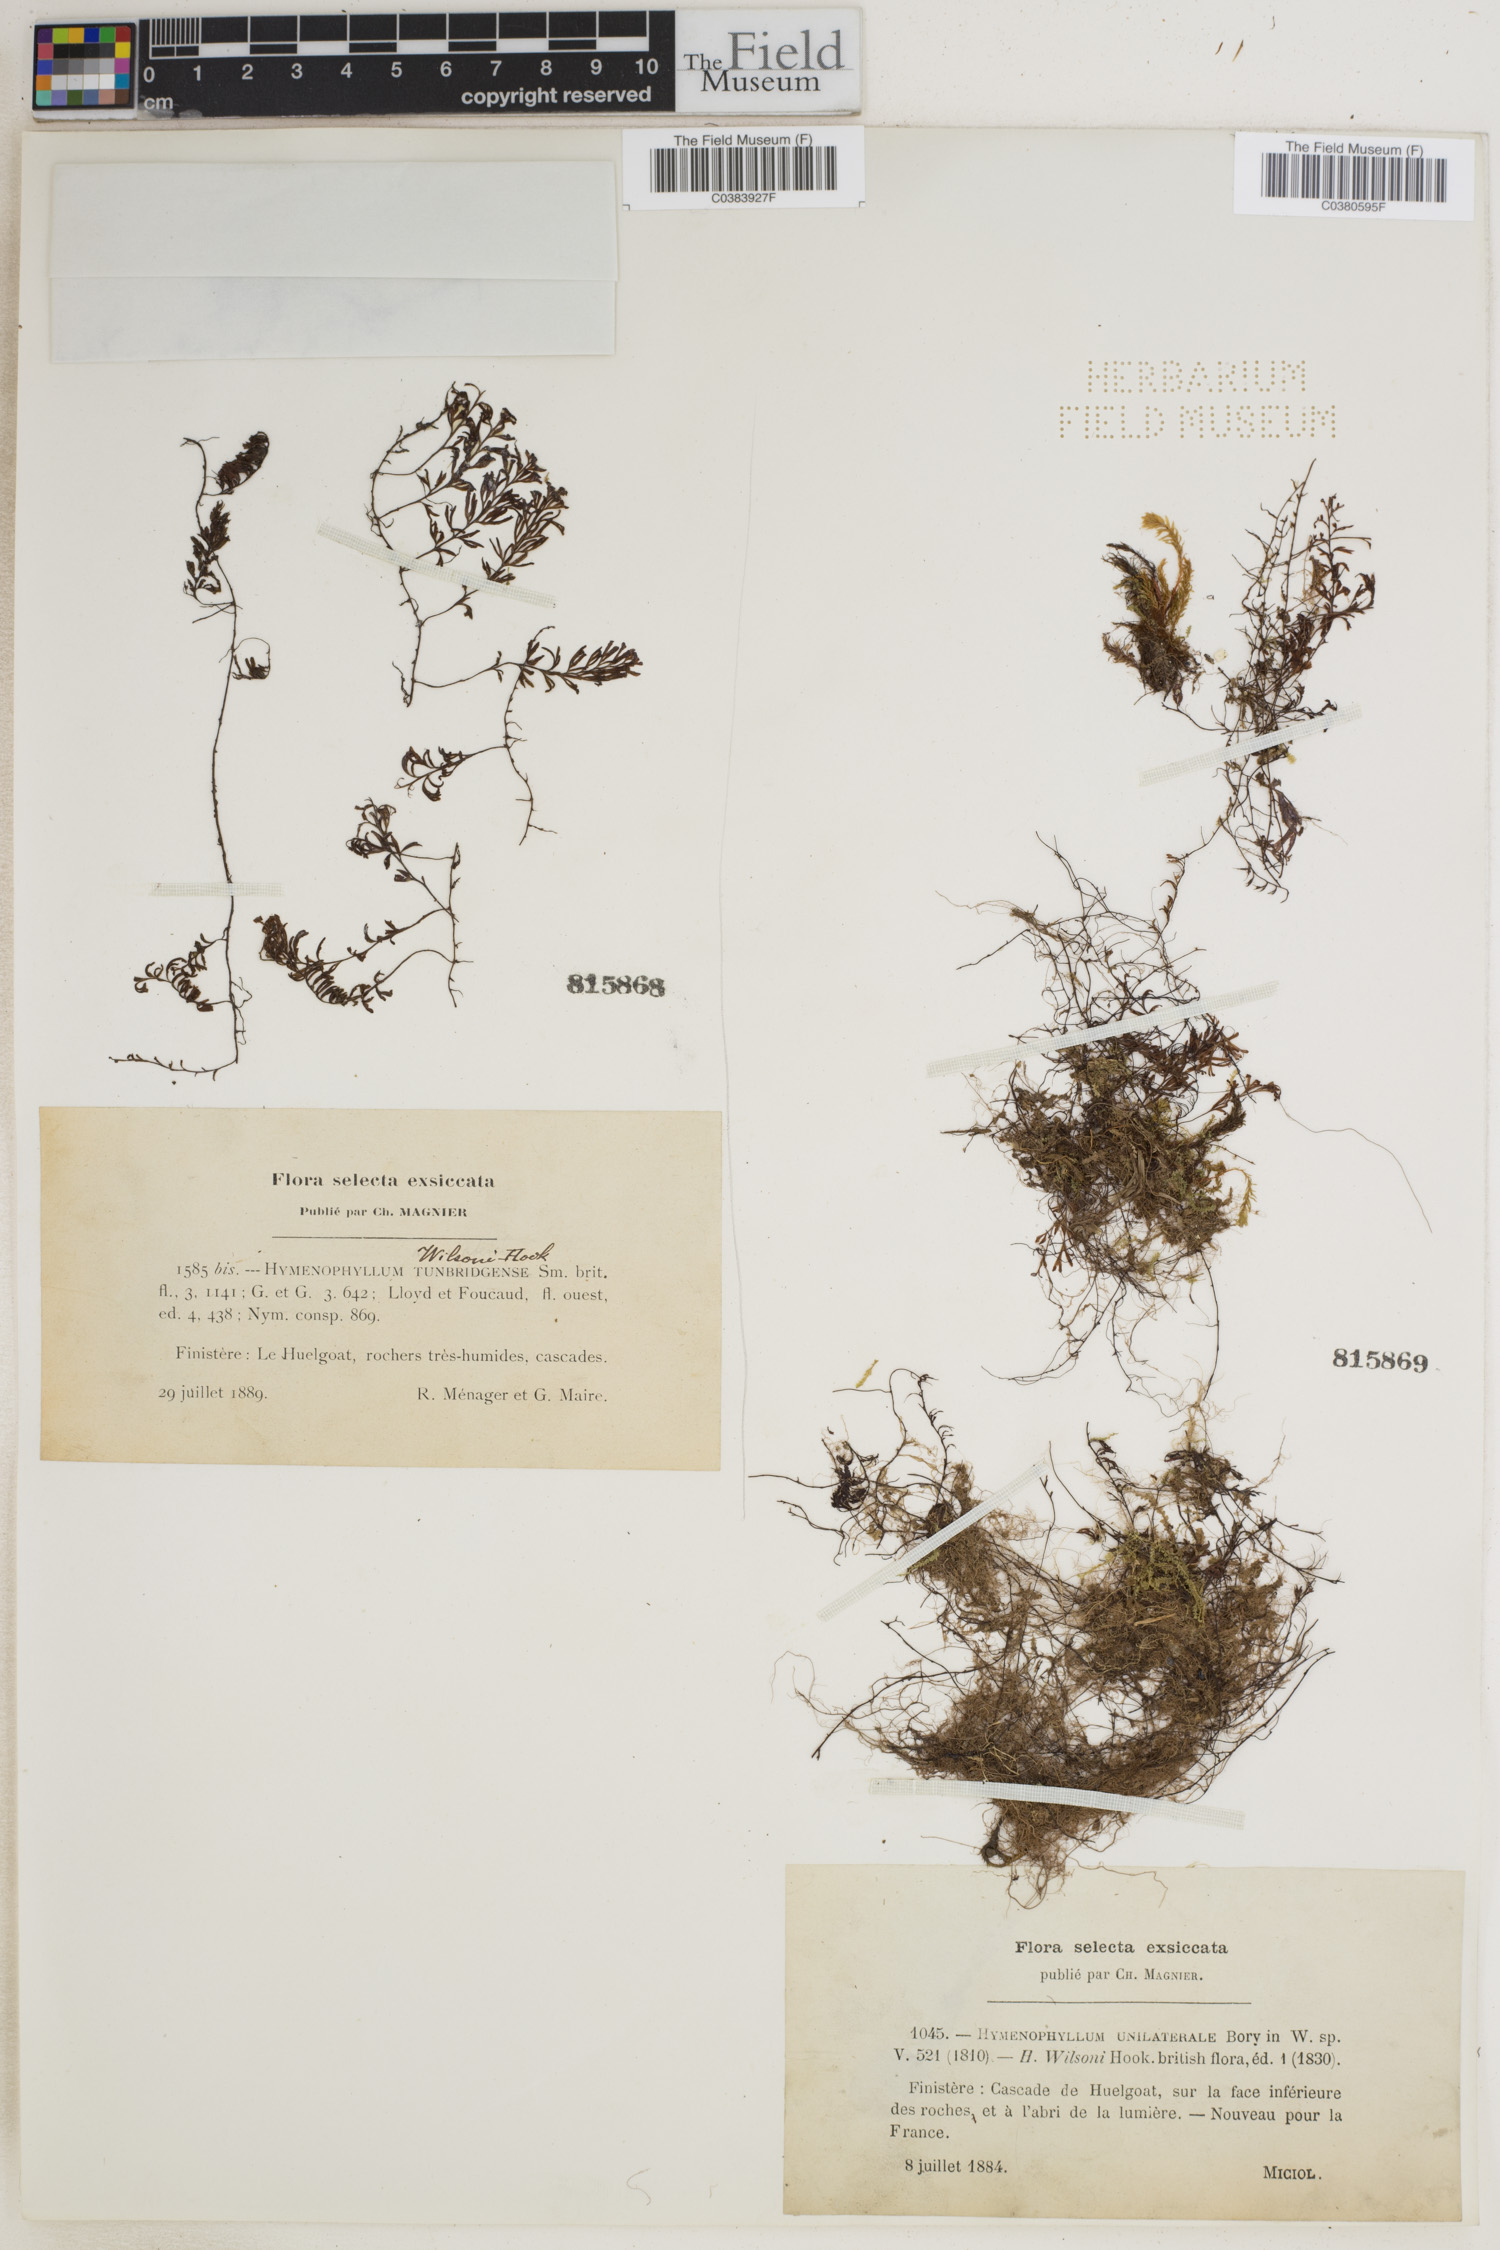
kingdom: Plantae
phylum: Tracheophyta
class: Polypodiopsida
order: Hymenophyllales
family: Hymenophyllaceae
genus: Hymenophyllum
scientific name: Hymenophyllum wilsonii
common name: Wilson's filmy fern
